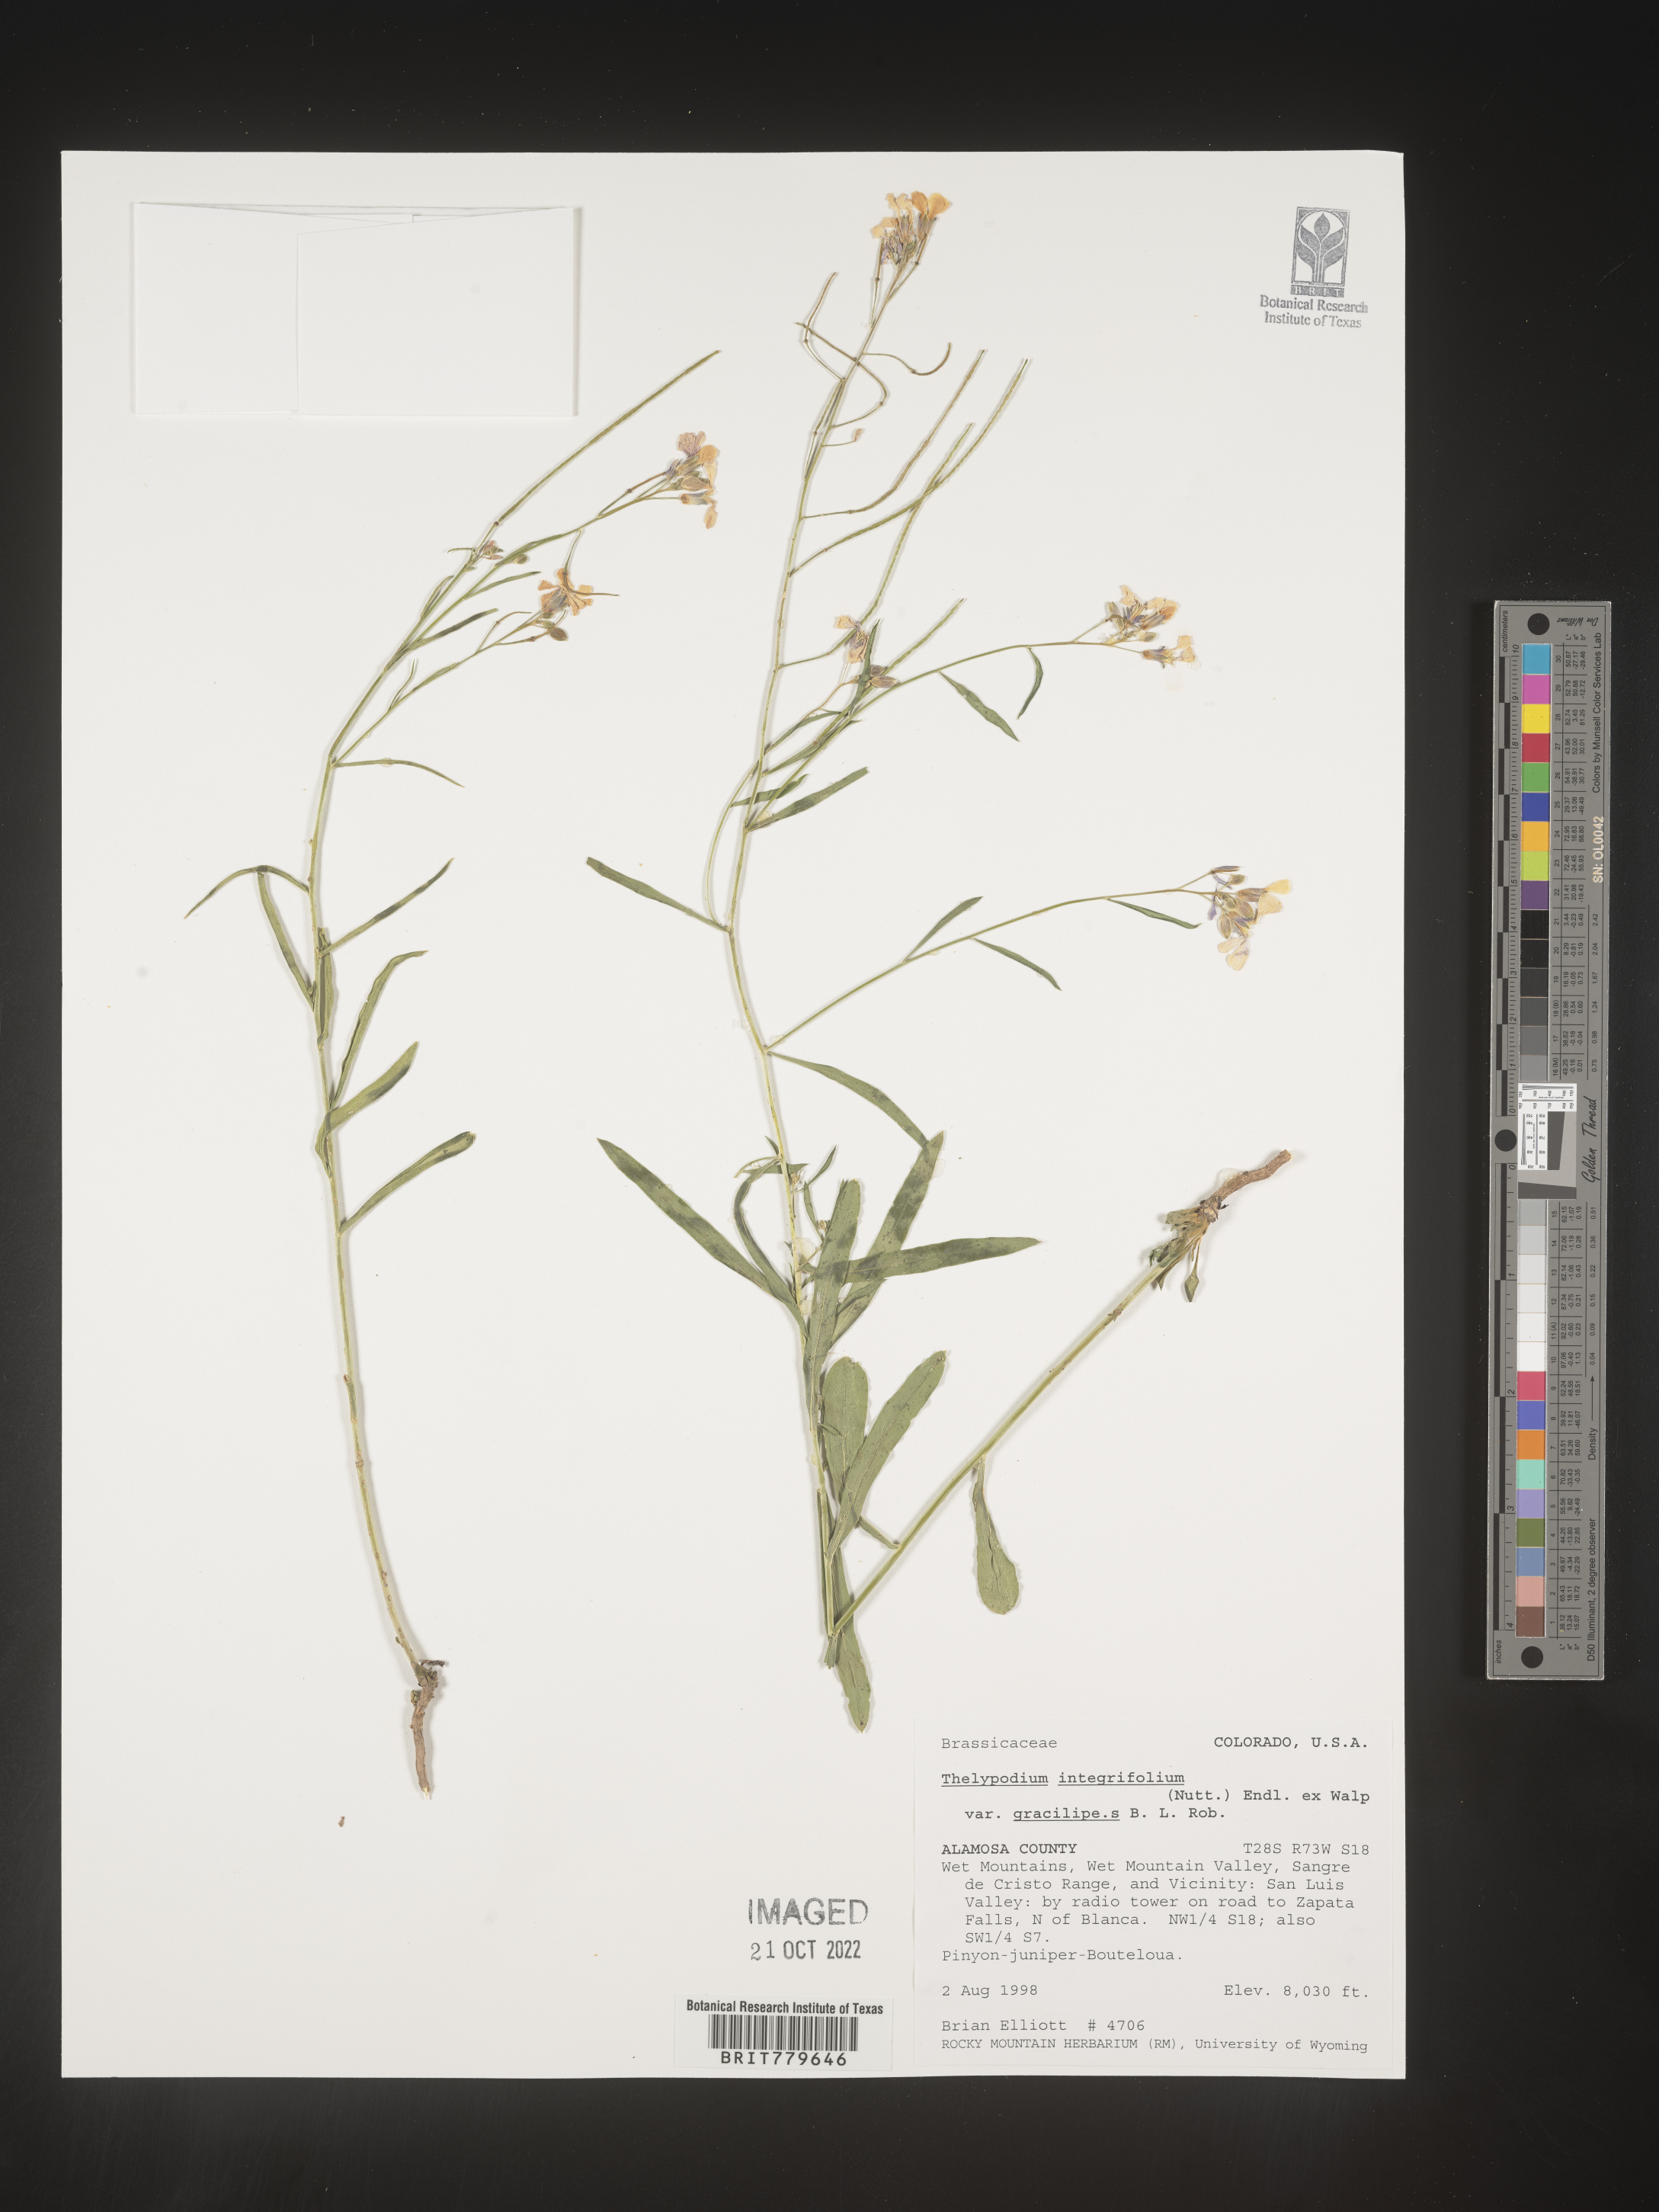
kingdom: Plantae
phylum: Tracheophyta
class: Magnoliopsida
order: Brassicales
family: Brassicaceae
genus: Thelypodium
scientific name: Thelypodium
